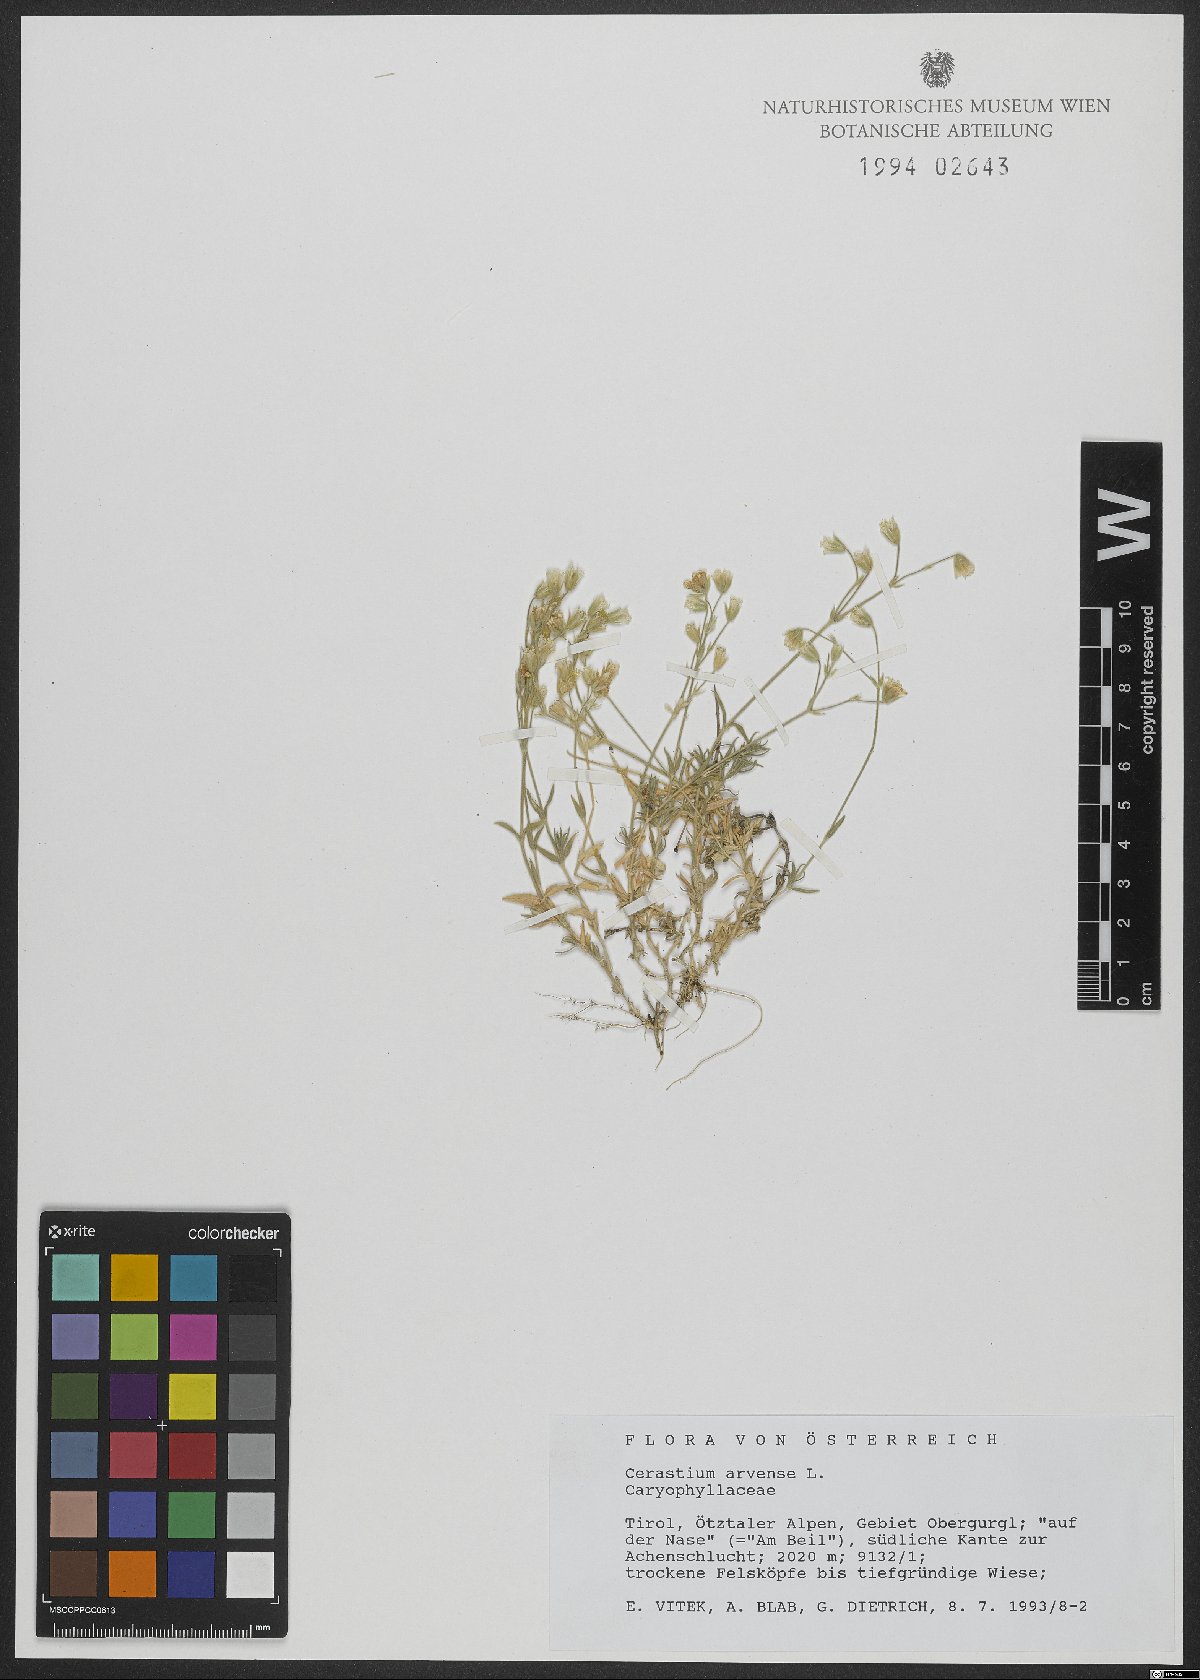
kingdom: Plantae
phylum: Tracheophyta
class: Magnoliopsida
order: Caryophyllales
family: Caryophyllaceae
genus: Cerastium
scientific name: Cerastium arvense
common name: Field mouse-ear
